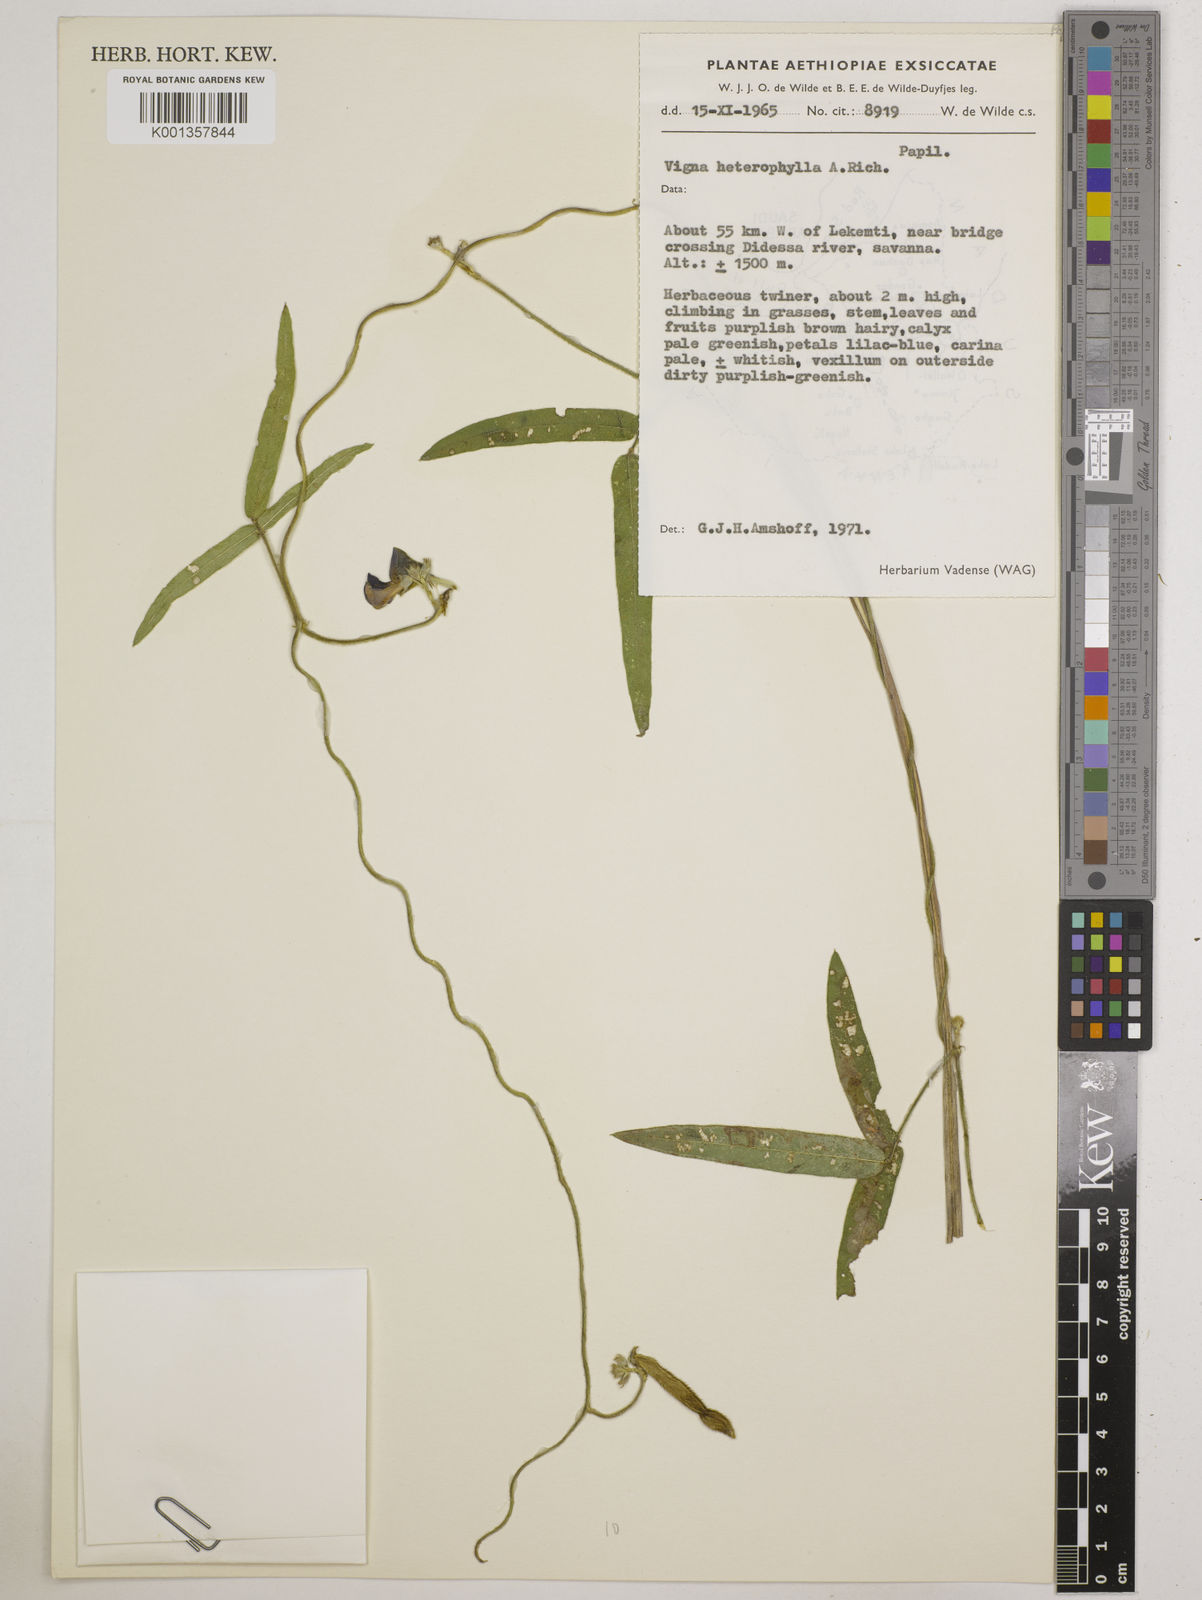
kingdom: Plantae
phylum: Tracheophyta
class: Magnoliopsida
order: Fabales
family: Fabaceae
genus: Vigna
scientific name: Vigna heterophylla
